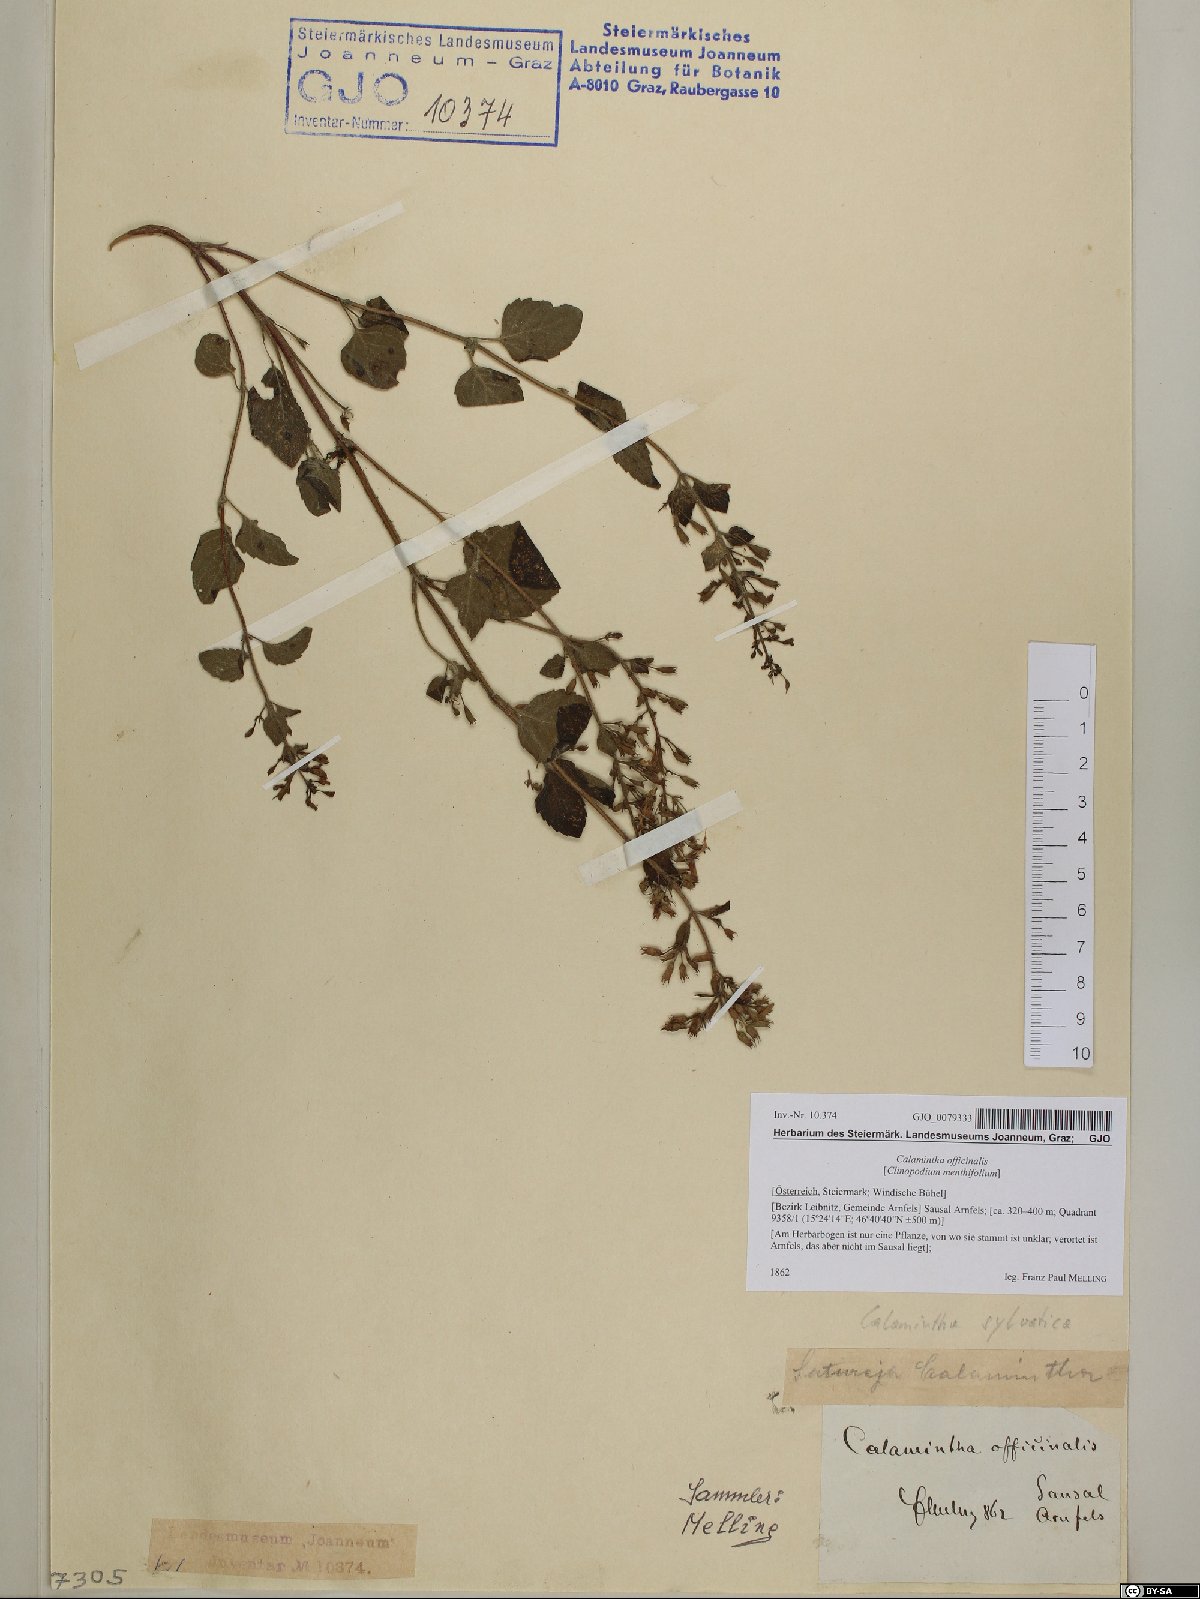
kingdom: Plantae
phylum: Tracheophyta
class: Magnoliopsida
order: Lamiales
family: Lamiaceae
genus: Clinopodium
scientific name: Clinopodium nepeta
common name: Lesser calamint
